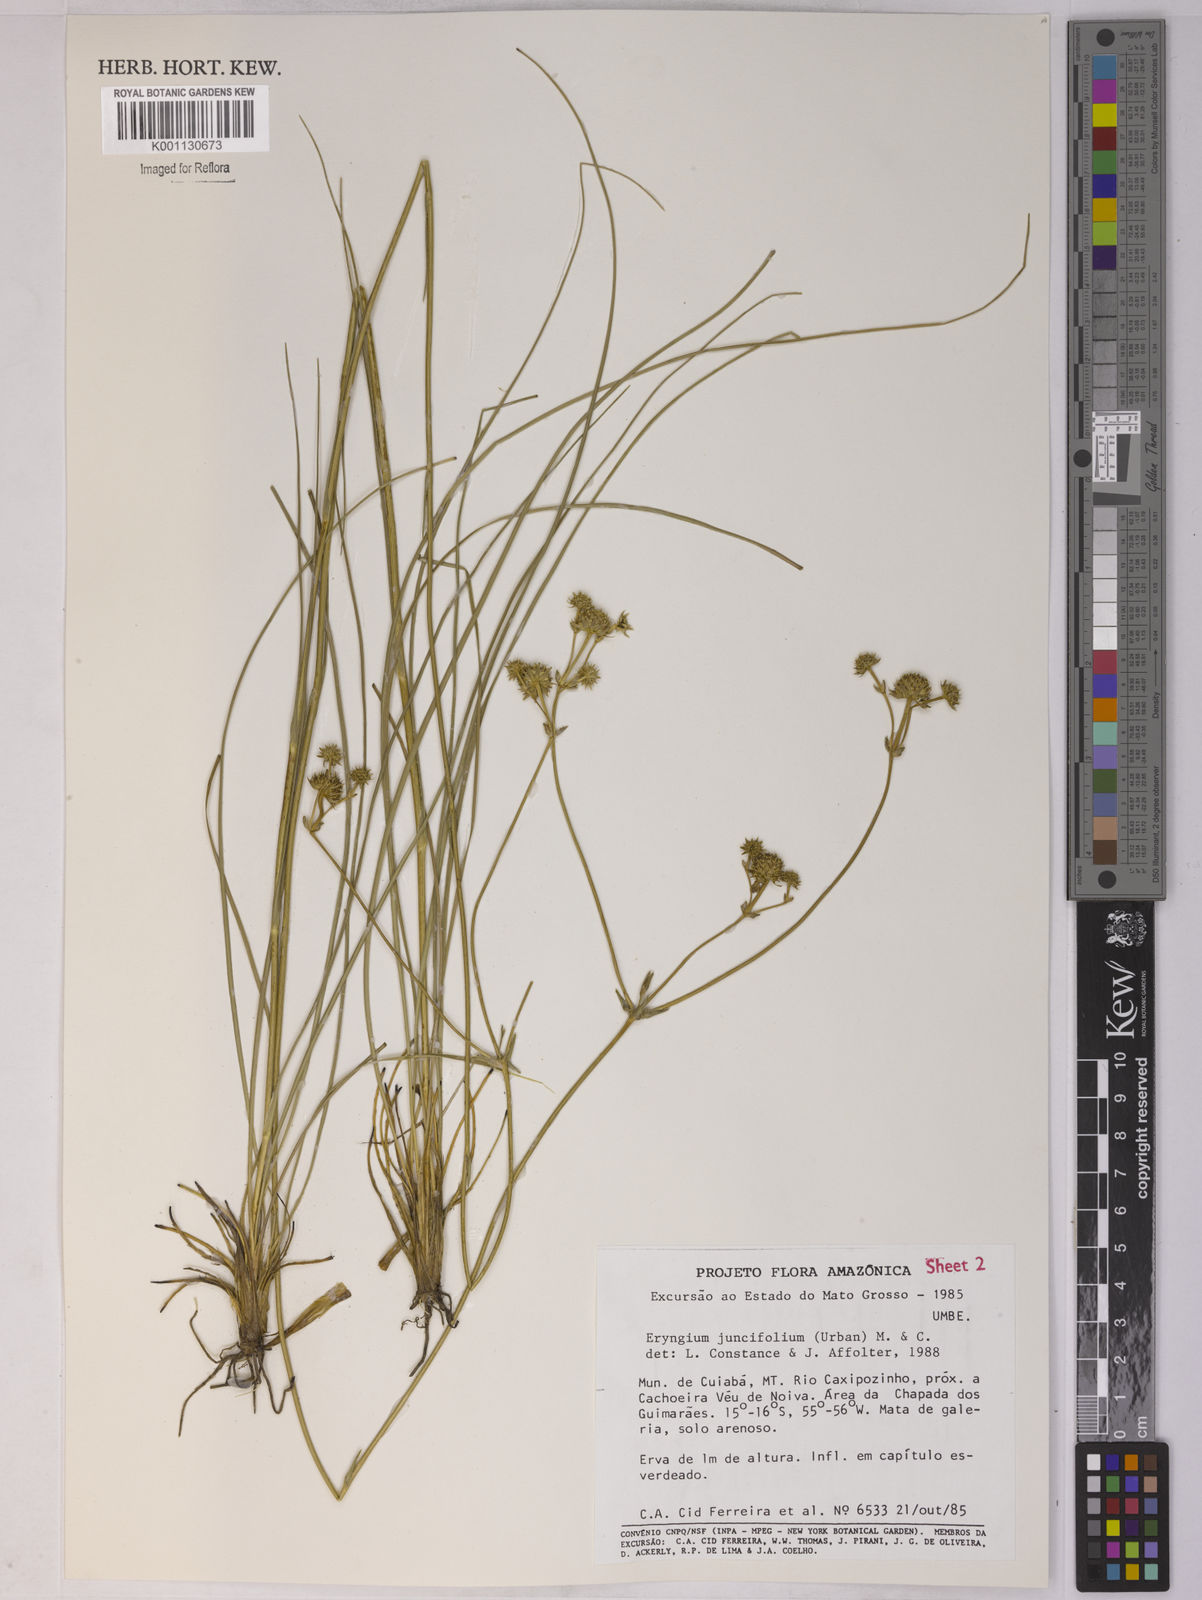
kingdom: Plantae
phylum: Tracheophyta
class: Magnoliopsida
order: Apiales
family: Apiaceae
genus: Eryngium
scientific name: Eryngium juncifolium
